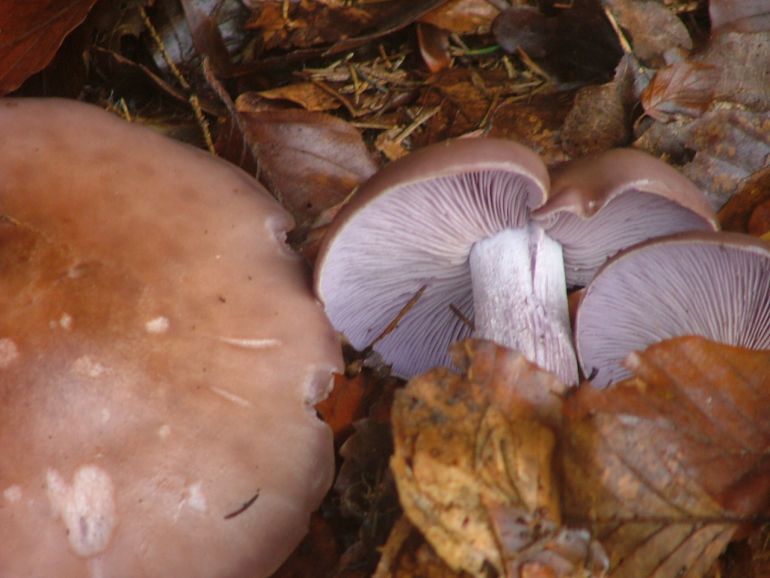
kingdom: Fungi
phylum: Basidiomycota
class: Agaricomycetes
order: Agaricales
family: Tricholomataceae
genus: Lepista
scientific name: Lepista nuda
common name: violet hekseringshat
